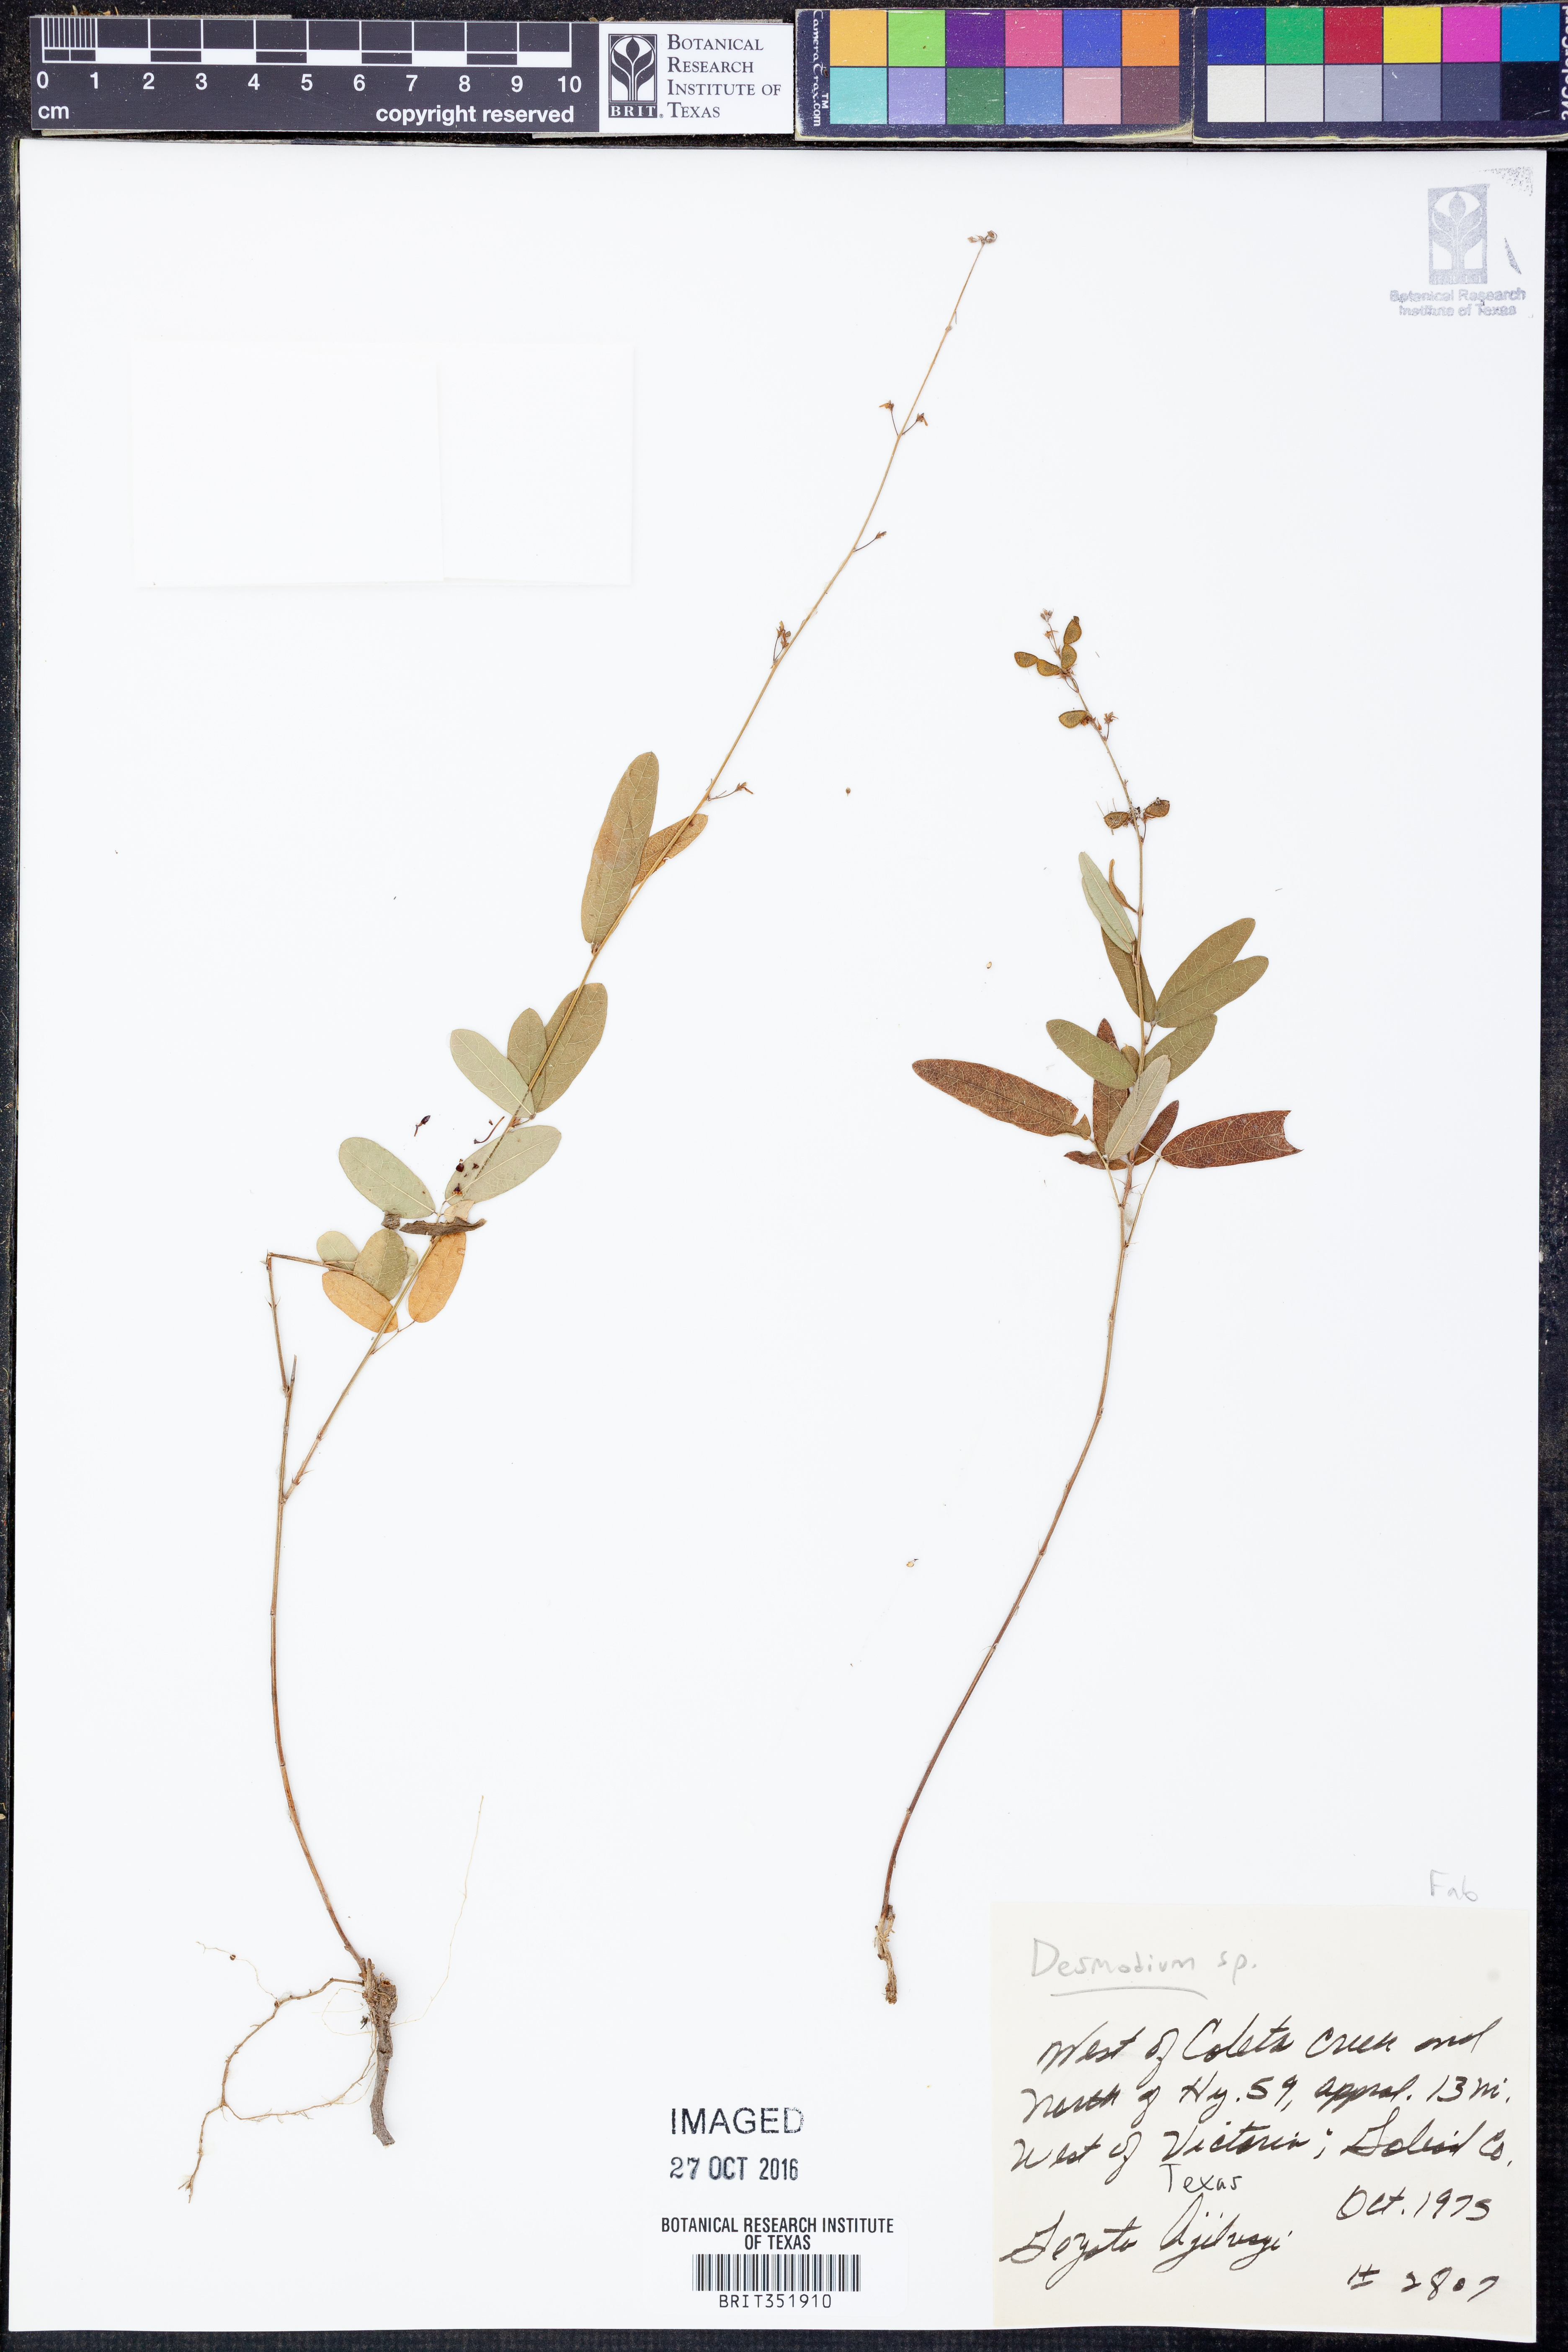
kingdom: Plantae
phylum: Tracheophyta
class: Magnoliopsida
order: Fabales
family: Fabaceae
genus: Desmodium
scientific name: Desmodium
